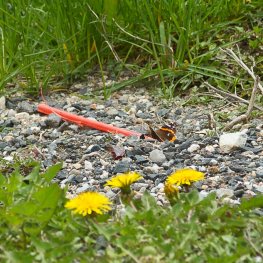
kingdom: Animalia
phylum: Arthropoda
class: Insecta
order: Lepidoptera
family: Nymphalidae
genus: Vanessa
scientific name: Vanessa atalanta
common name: Red Admiral
